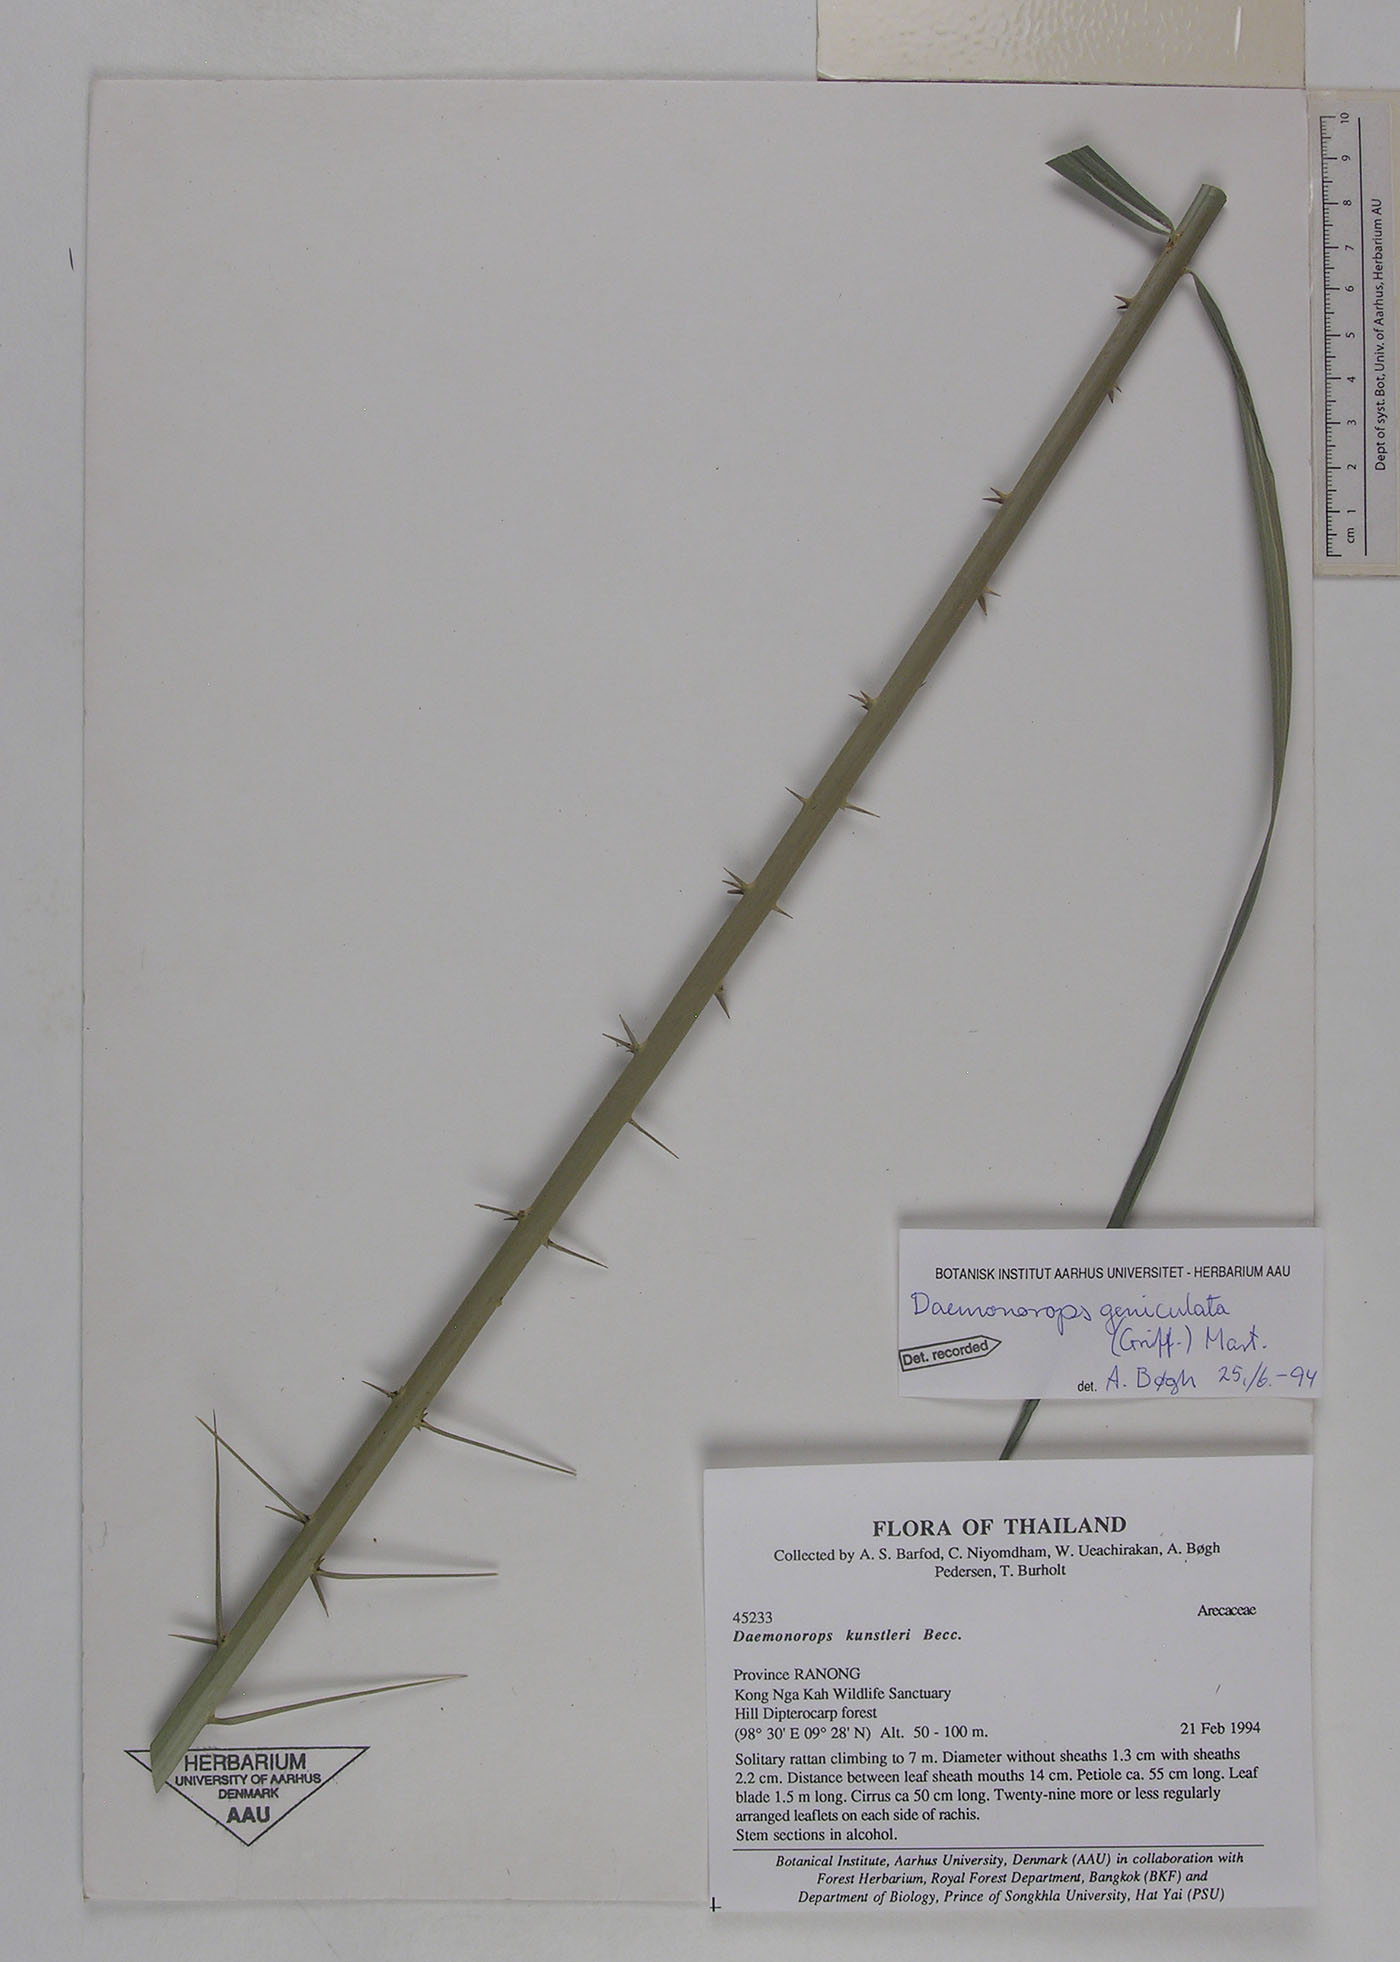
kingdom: Plantae
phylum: Tracheophyta
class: Liliopsida
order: Arecales
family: Arecaceae
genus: Calamus
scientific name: Calamus geniculatus
